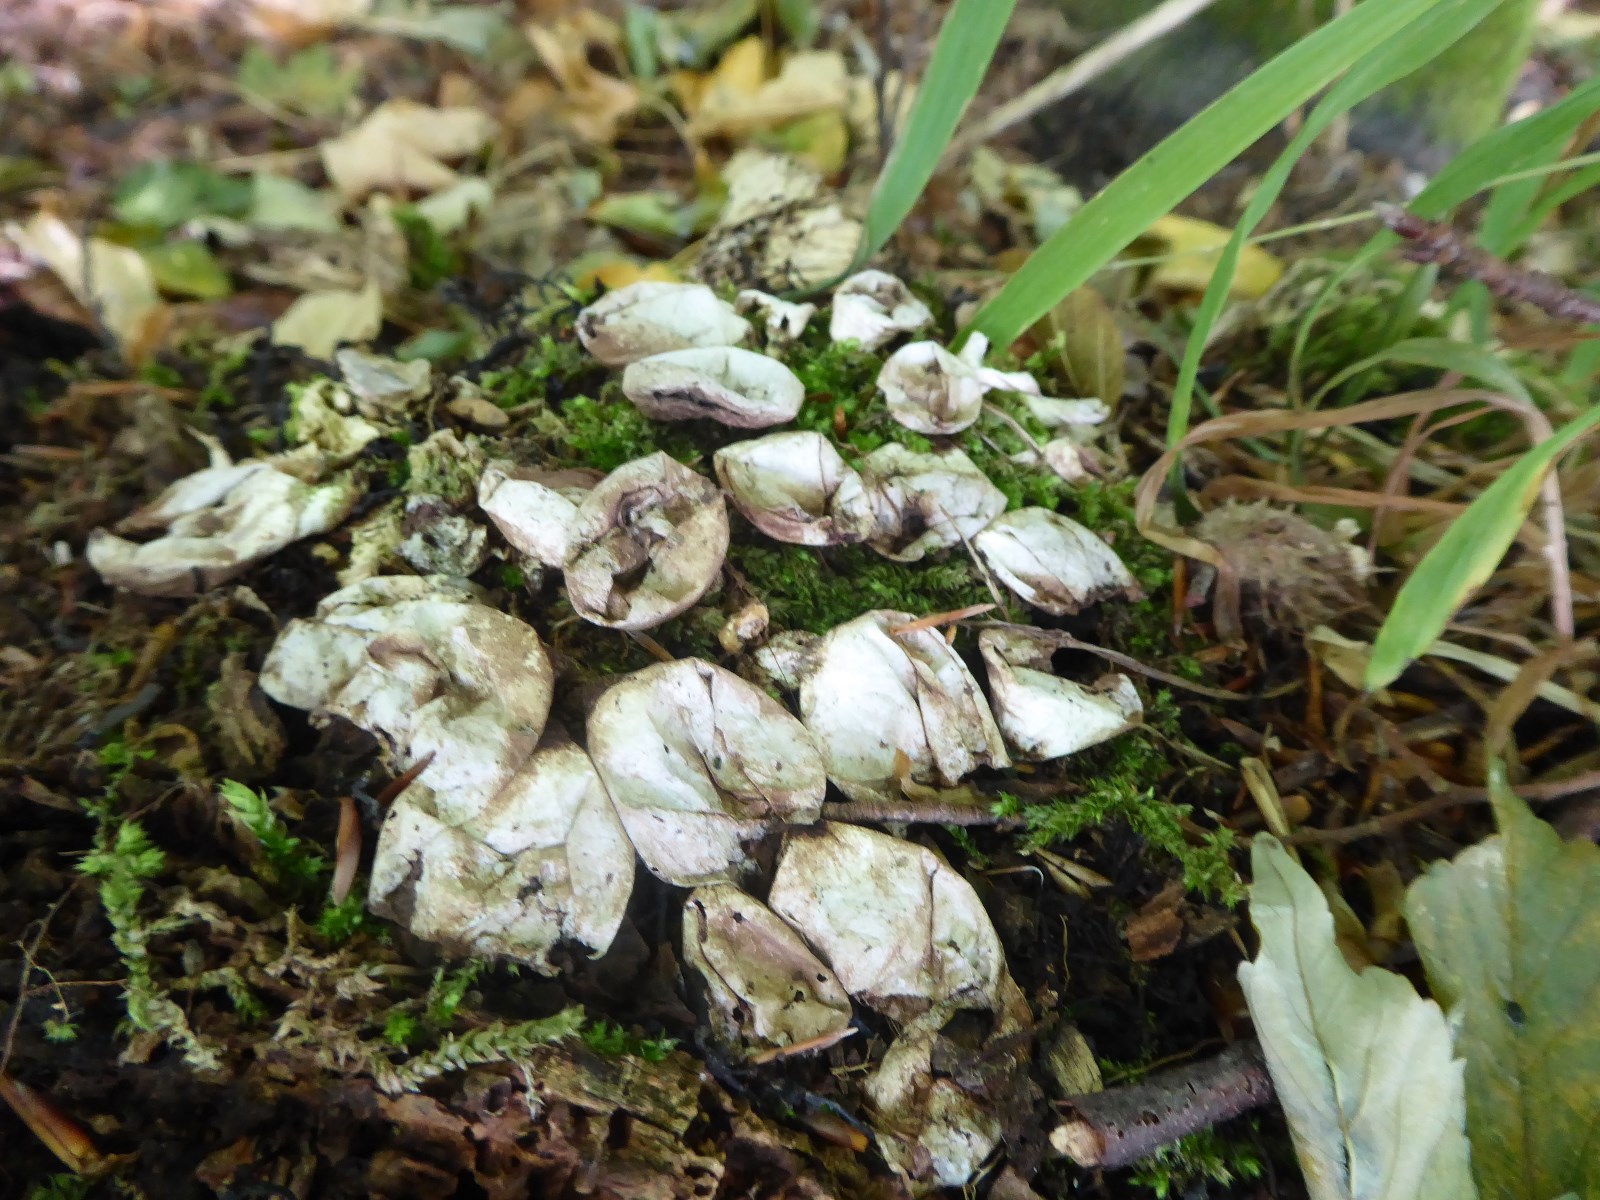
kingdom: Fungi
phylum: Basidiomycota
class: Agaricomycetes
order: Agaricales
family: Lycoperdaceae
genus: Apioperdon
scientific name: Apioperdon pyriforme
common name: pære-støvbold
